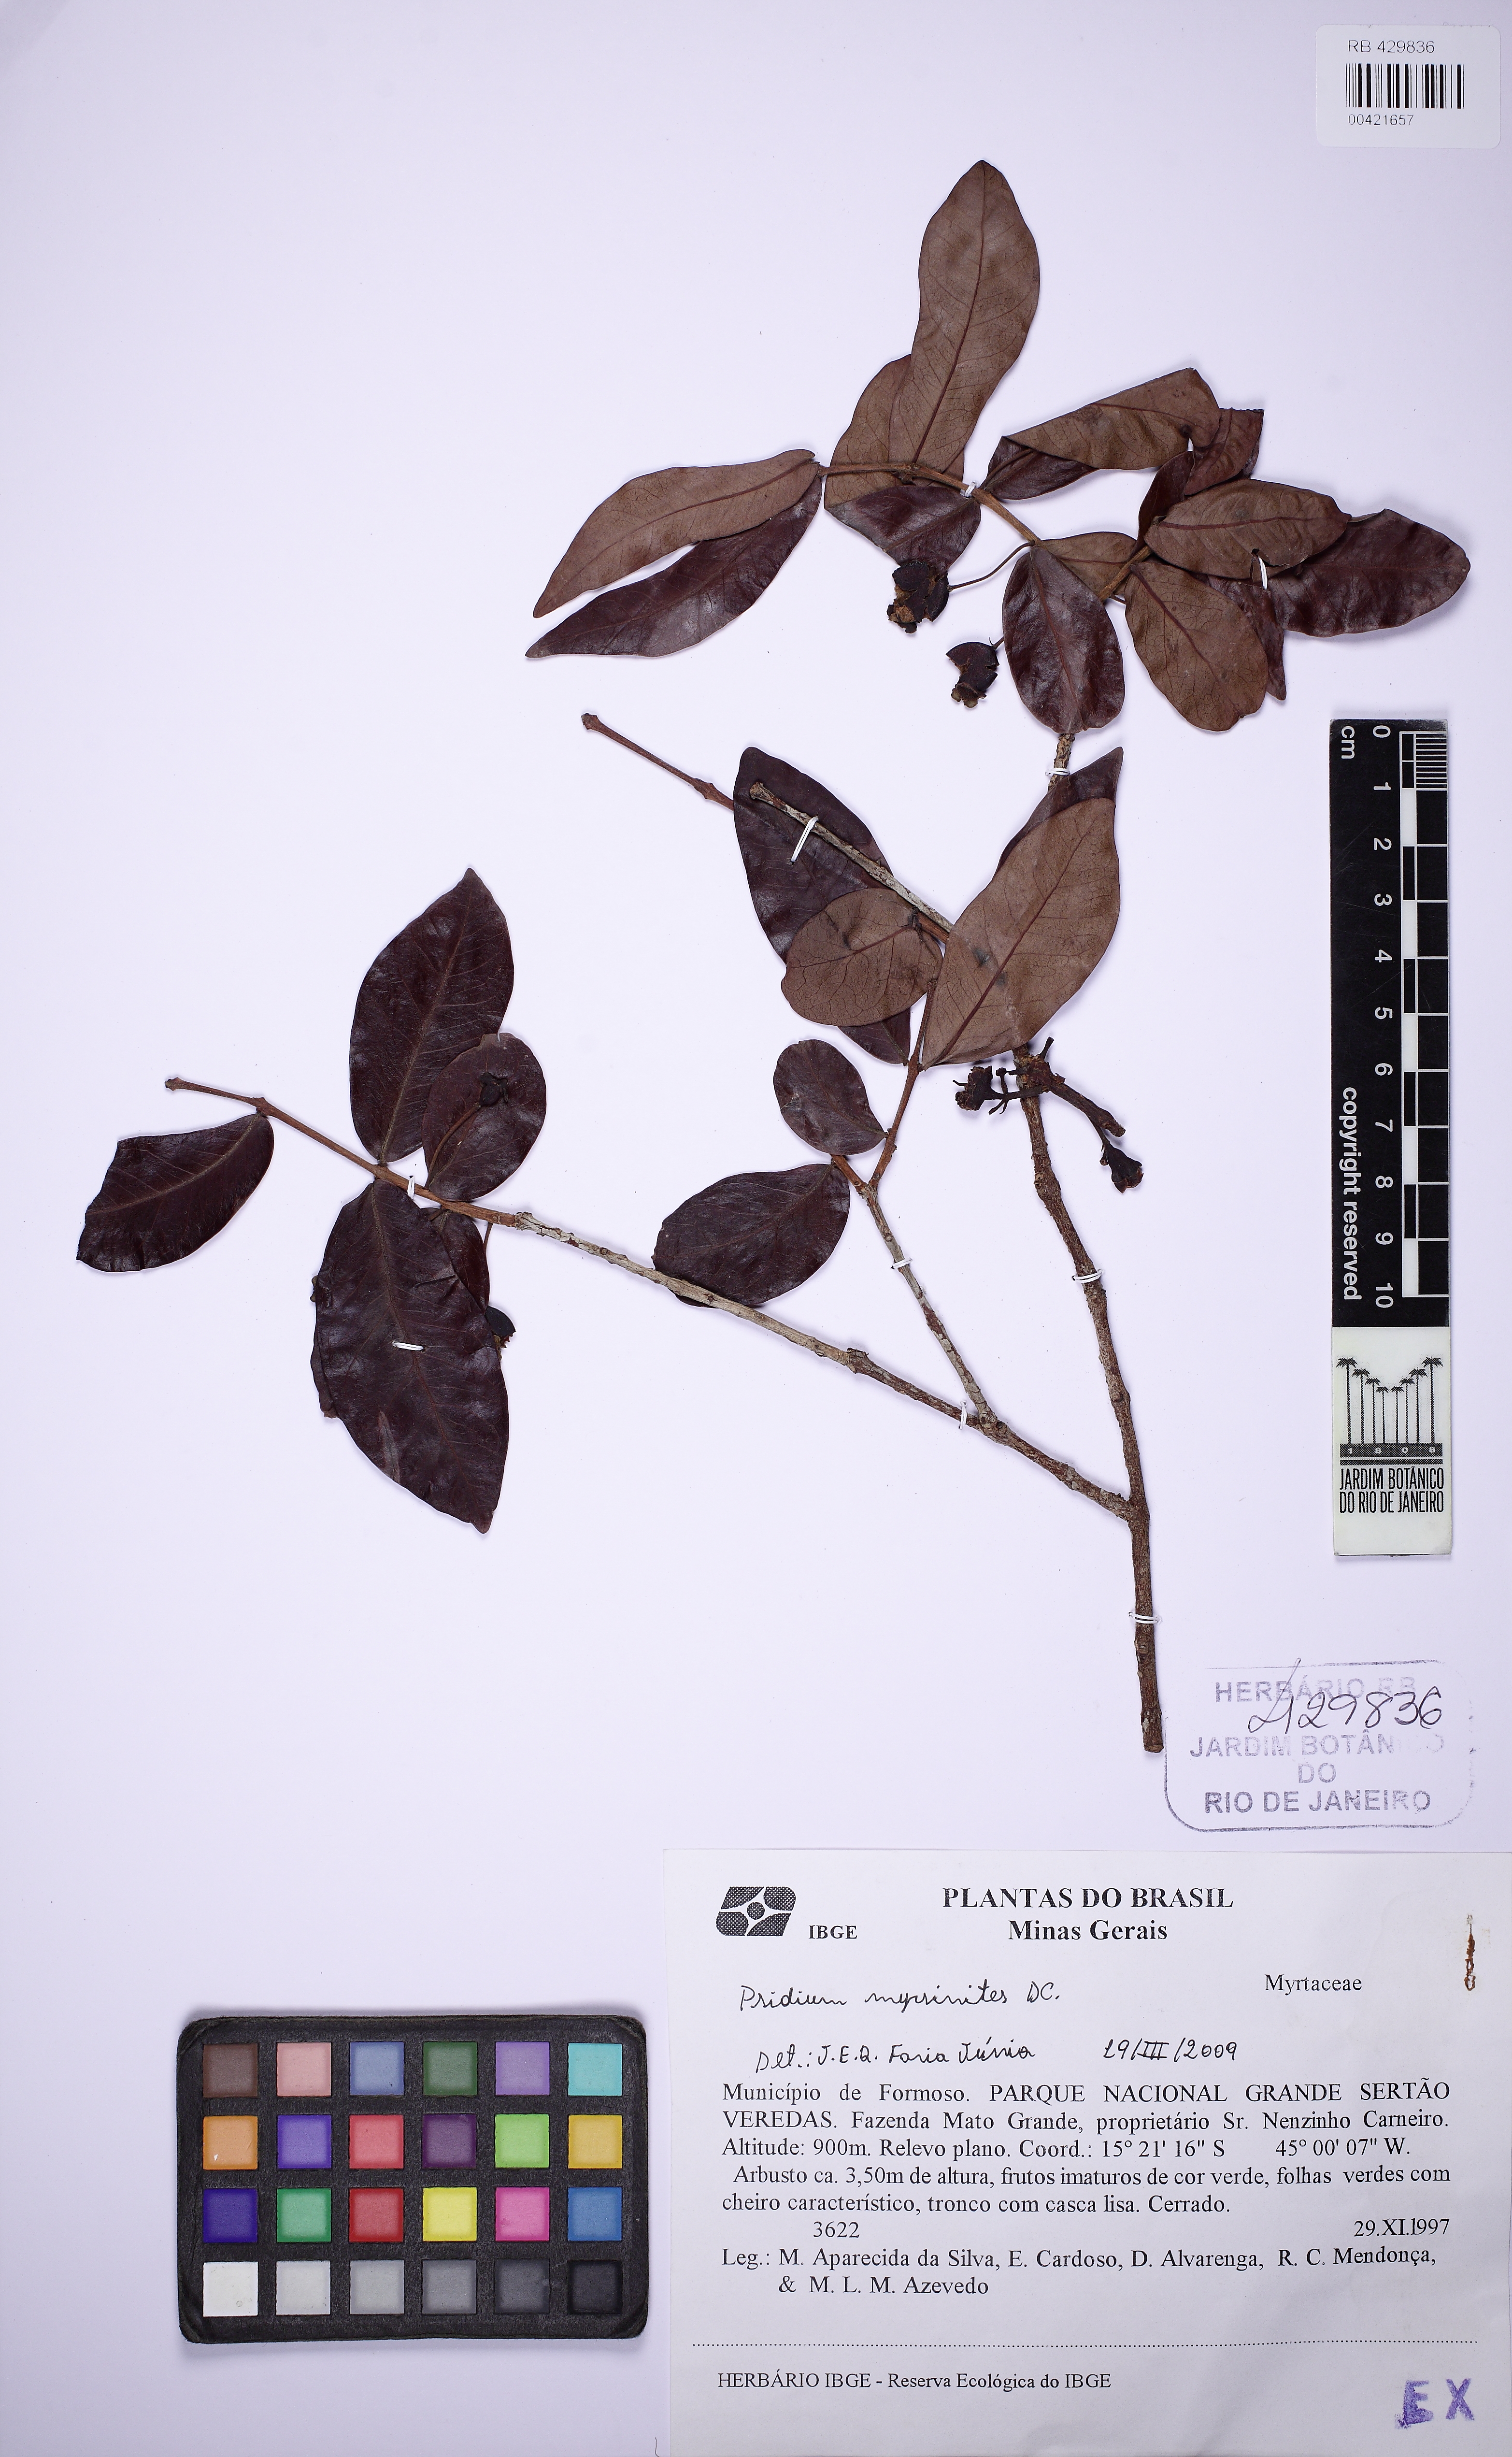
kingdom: Plantae
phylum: Tracheophyta
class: Magnoliopsida
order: Myrtales
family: Myrtaceae
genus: Psidium
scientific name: Psidium myrsinites
